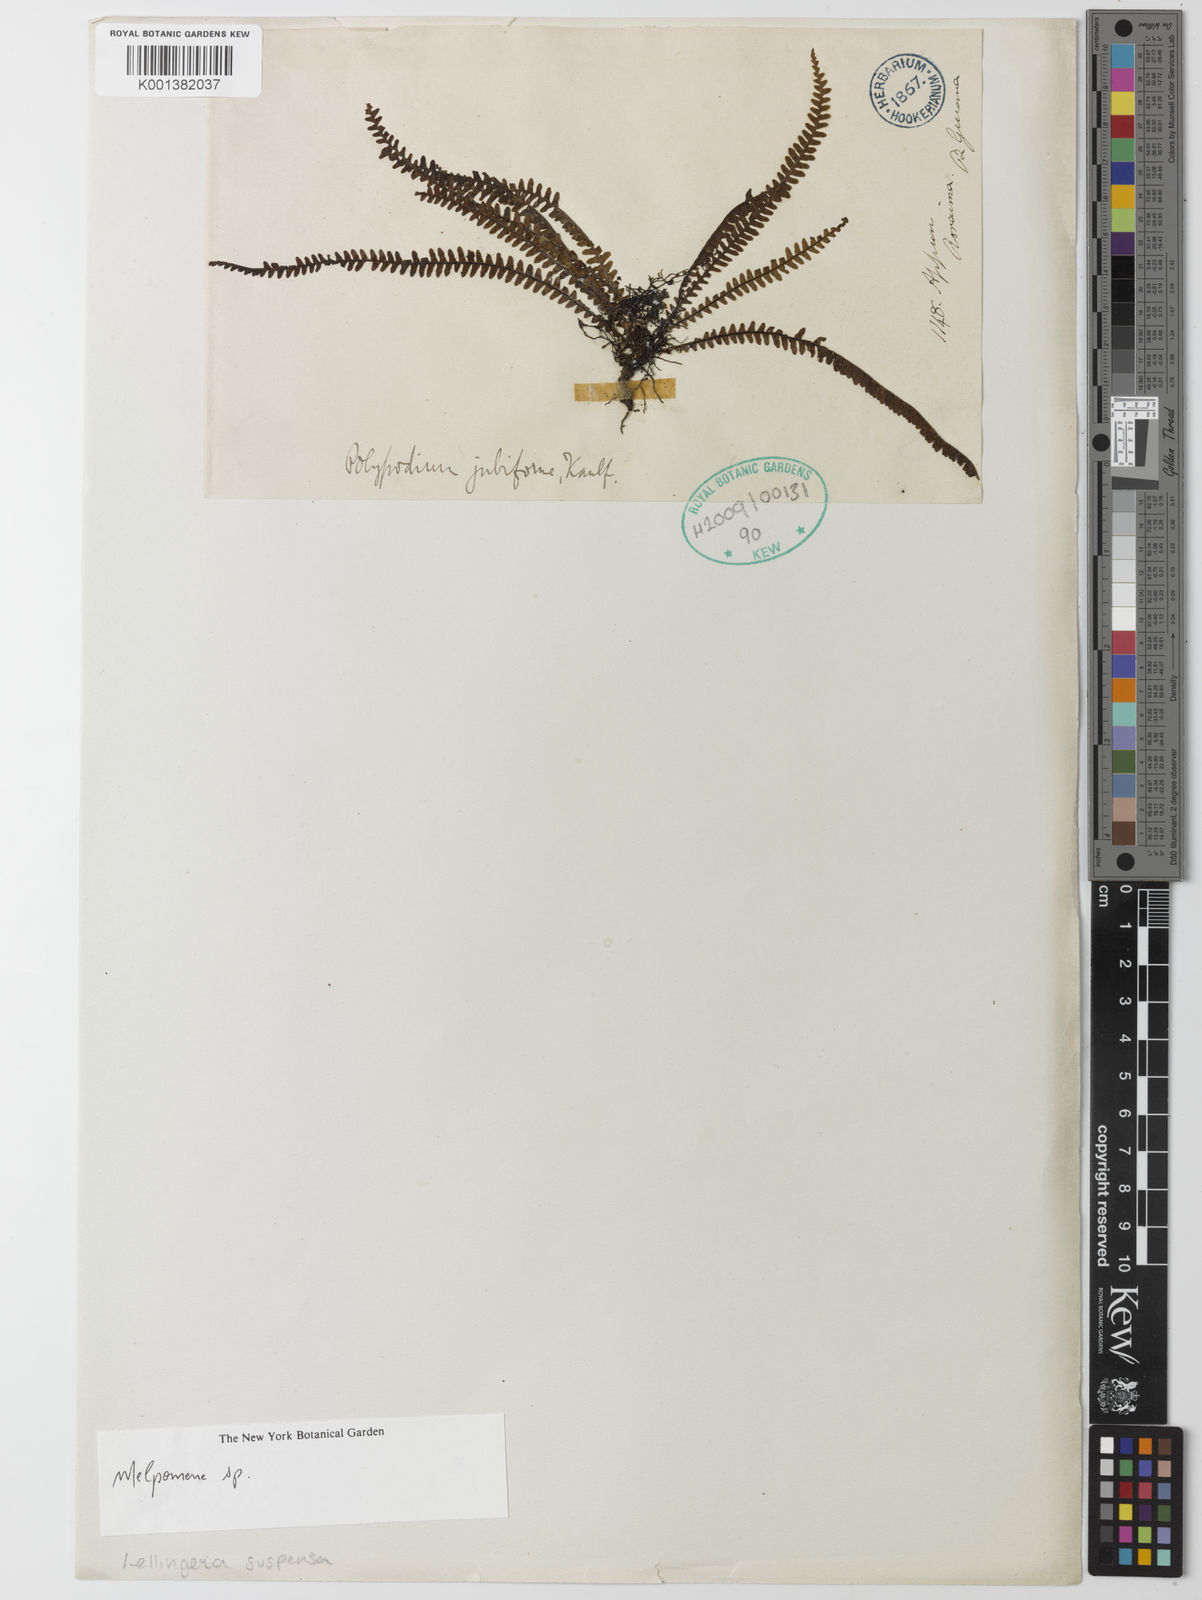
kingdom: Plantae
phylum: Tracheophyta
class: Polypodiopsida
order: Polypodiales
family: Polypodiaceae
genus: Melpomene
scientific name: Melpomene
